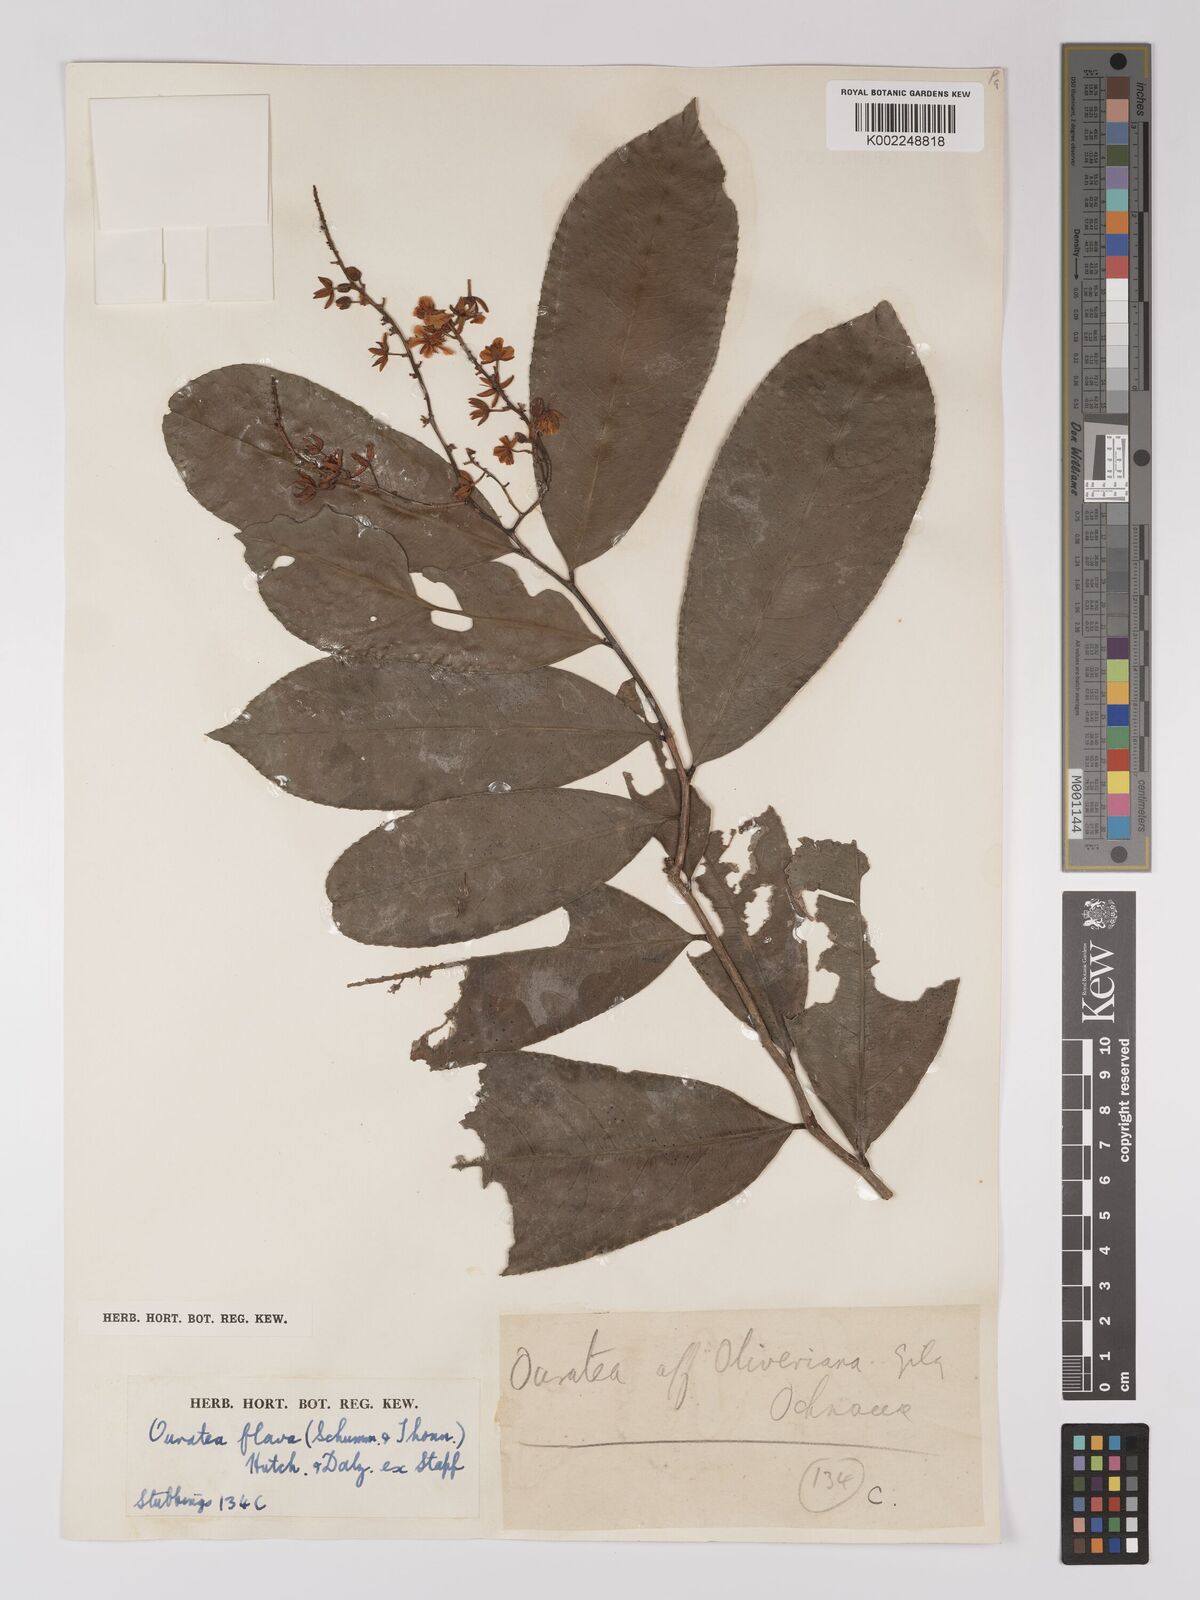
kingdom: Plantae
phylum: Tracheophyta
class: Magnoliopsida
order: Malpighiales
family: Ochnaceae
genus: Campylospermum
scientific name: Campylospermum flavum
